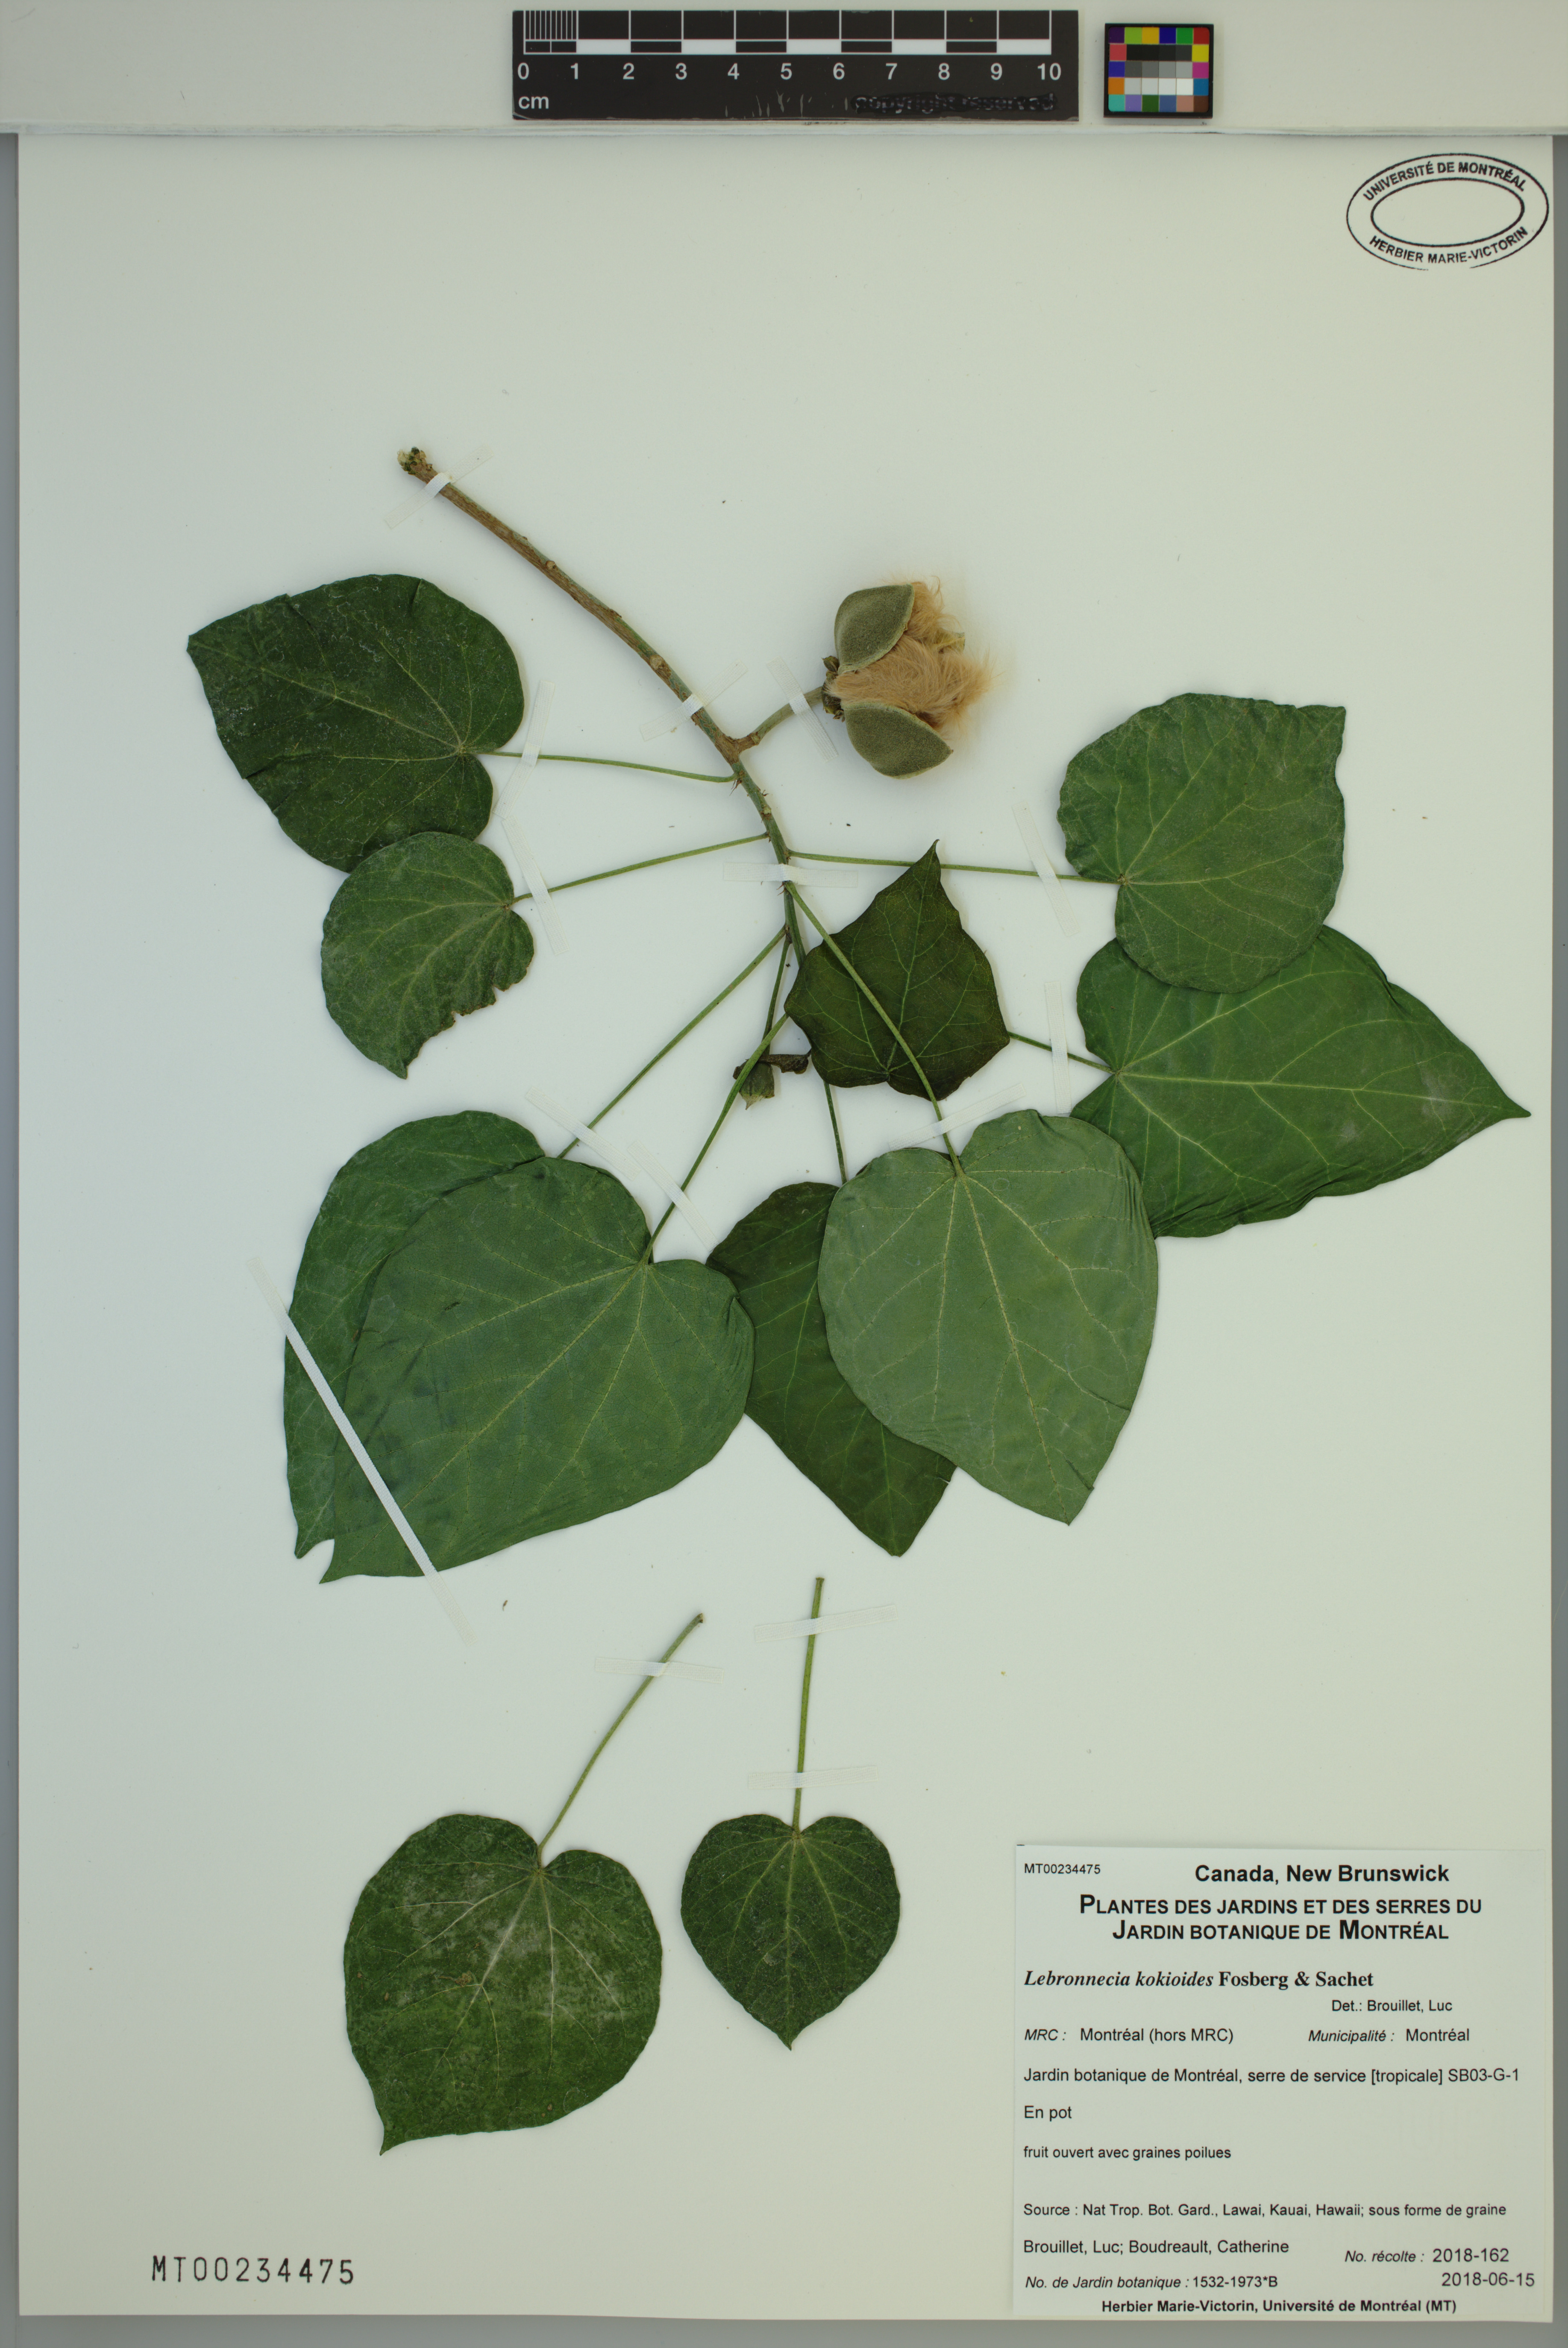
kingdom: Plantae
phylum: Tracheophyta
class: Magnoliopsida
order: Malvales
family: Malvaceae
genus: Lebronnecia
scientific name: Lebronnecia kokioides
